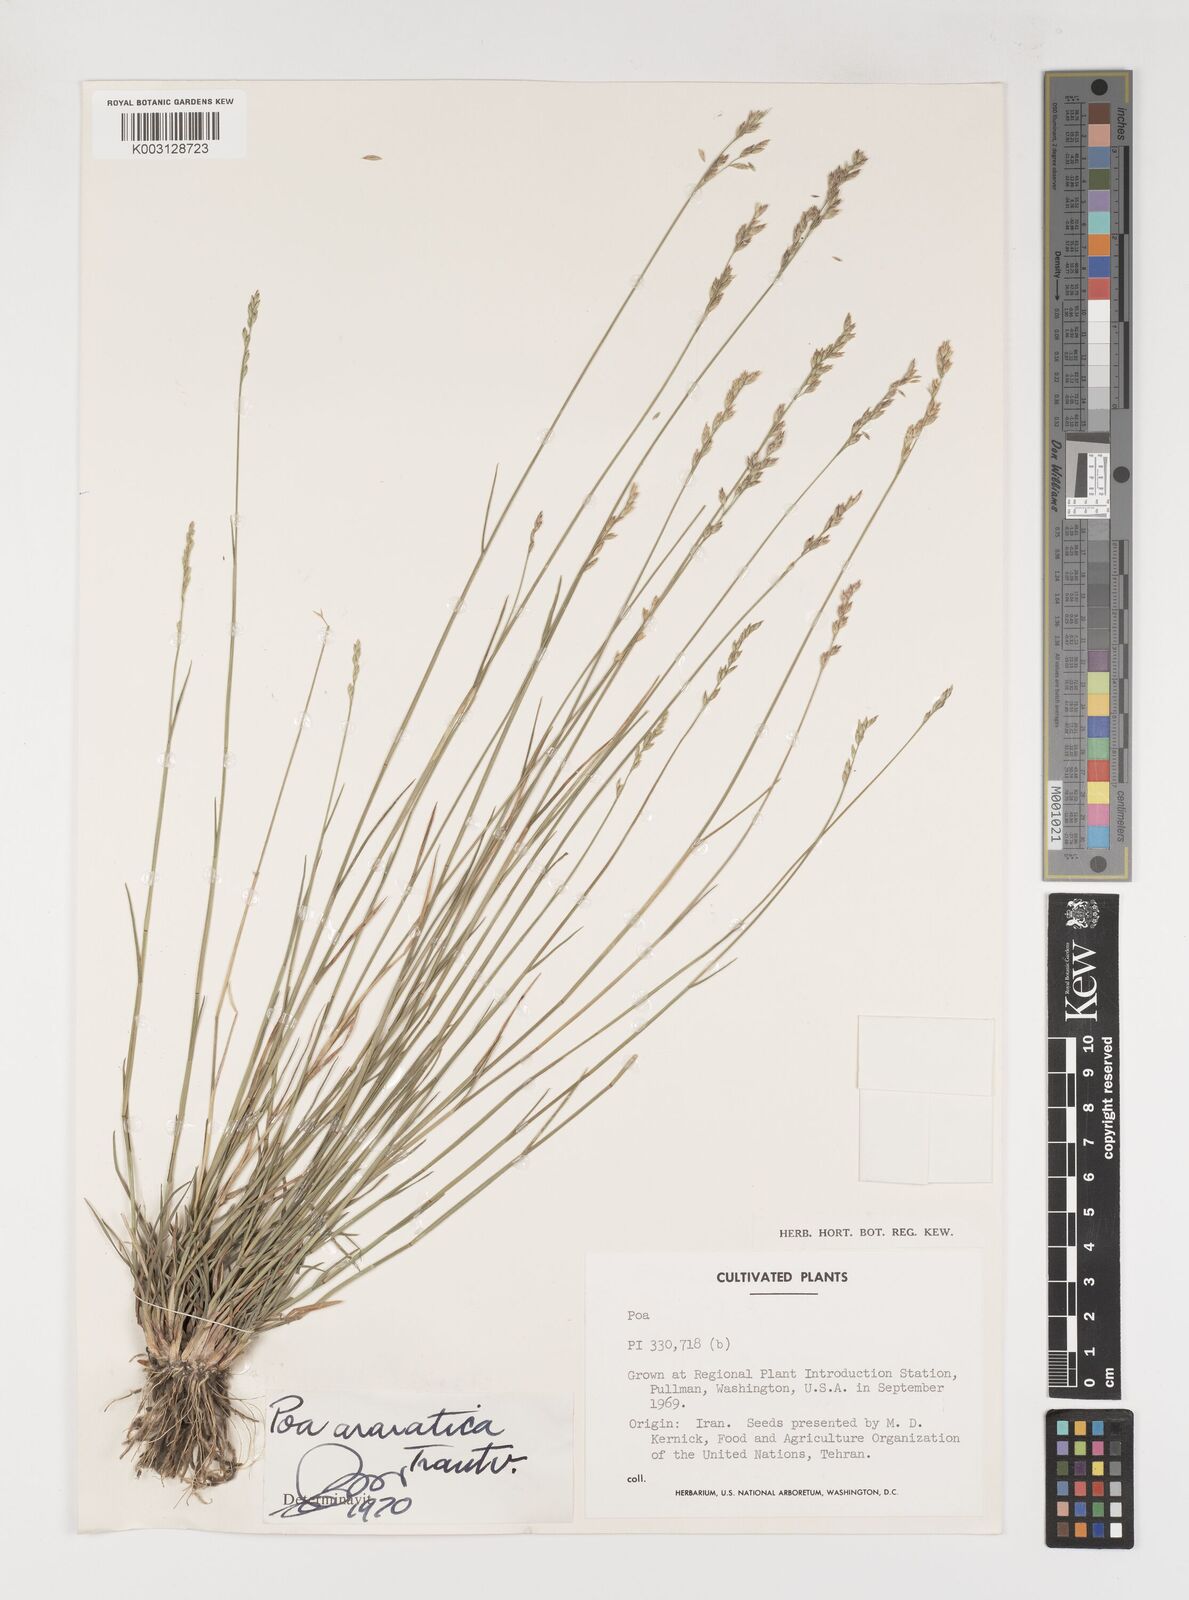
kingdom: Plantae
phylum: Tracheophyta
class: Liliopsida
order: Poales
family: Poaceae
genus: Poa
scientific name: Poa araratica
